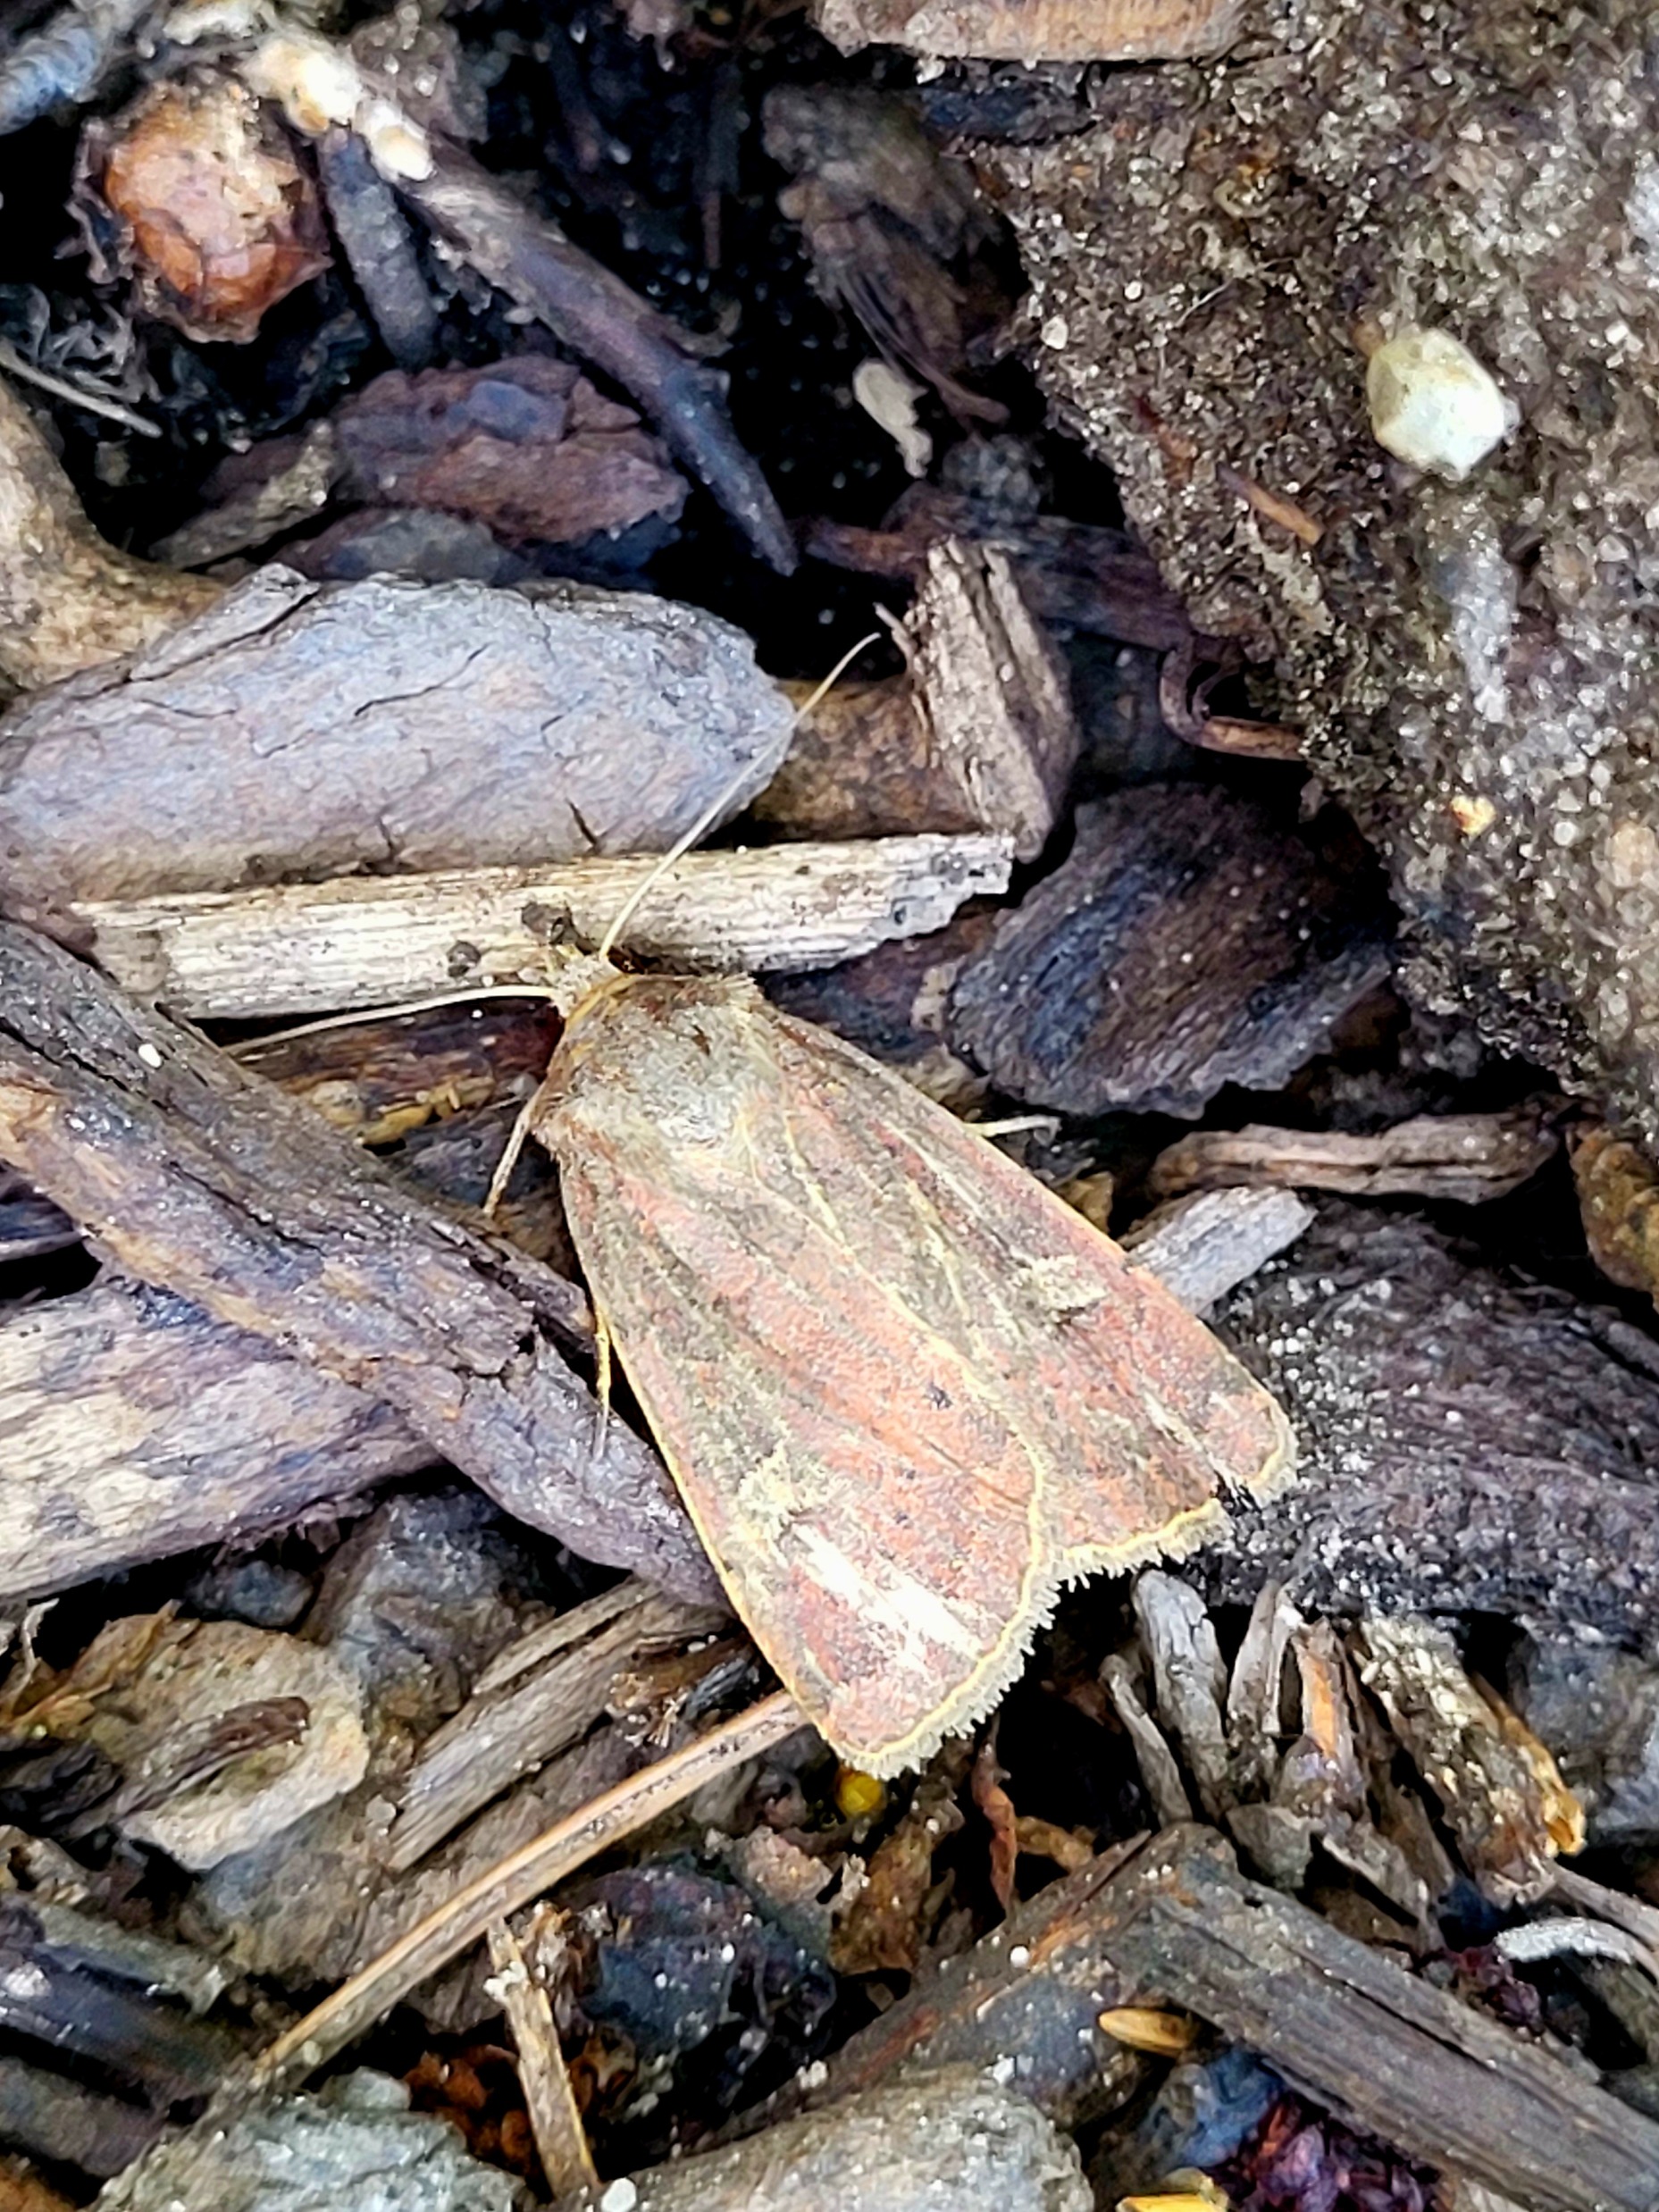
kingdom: Animalia
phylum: Arthropoda
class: Insecta
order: Lepidoptera
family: Noctuidae
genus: Xestia
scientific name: Xestia xanthographa
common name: Gulmærket glansugle
